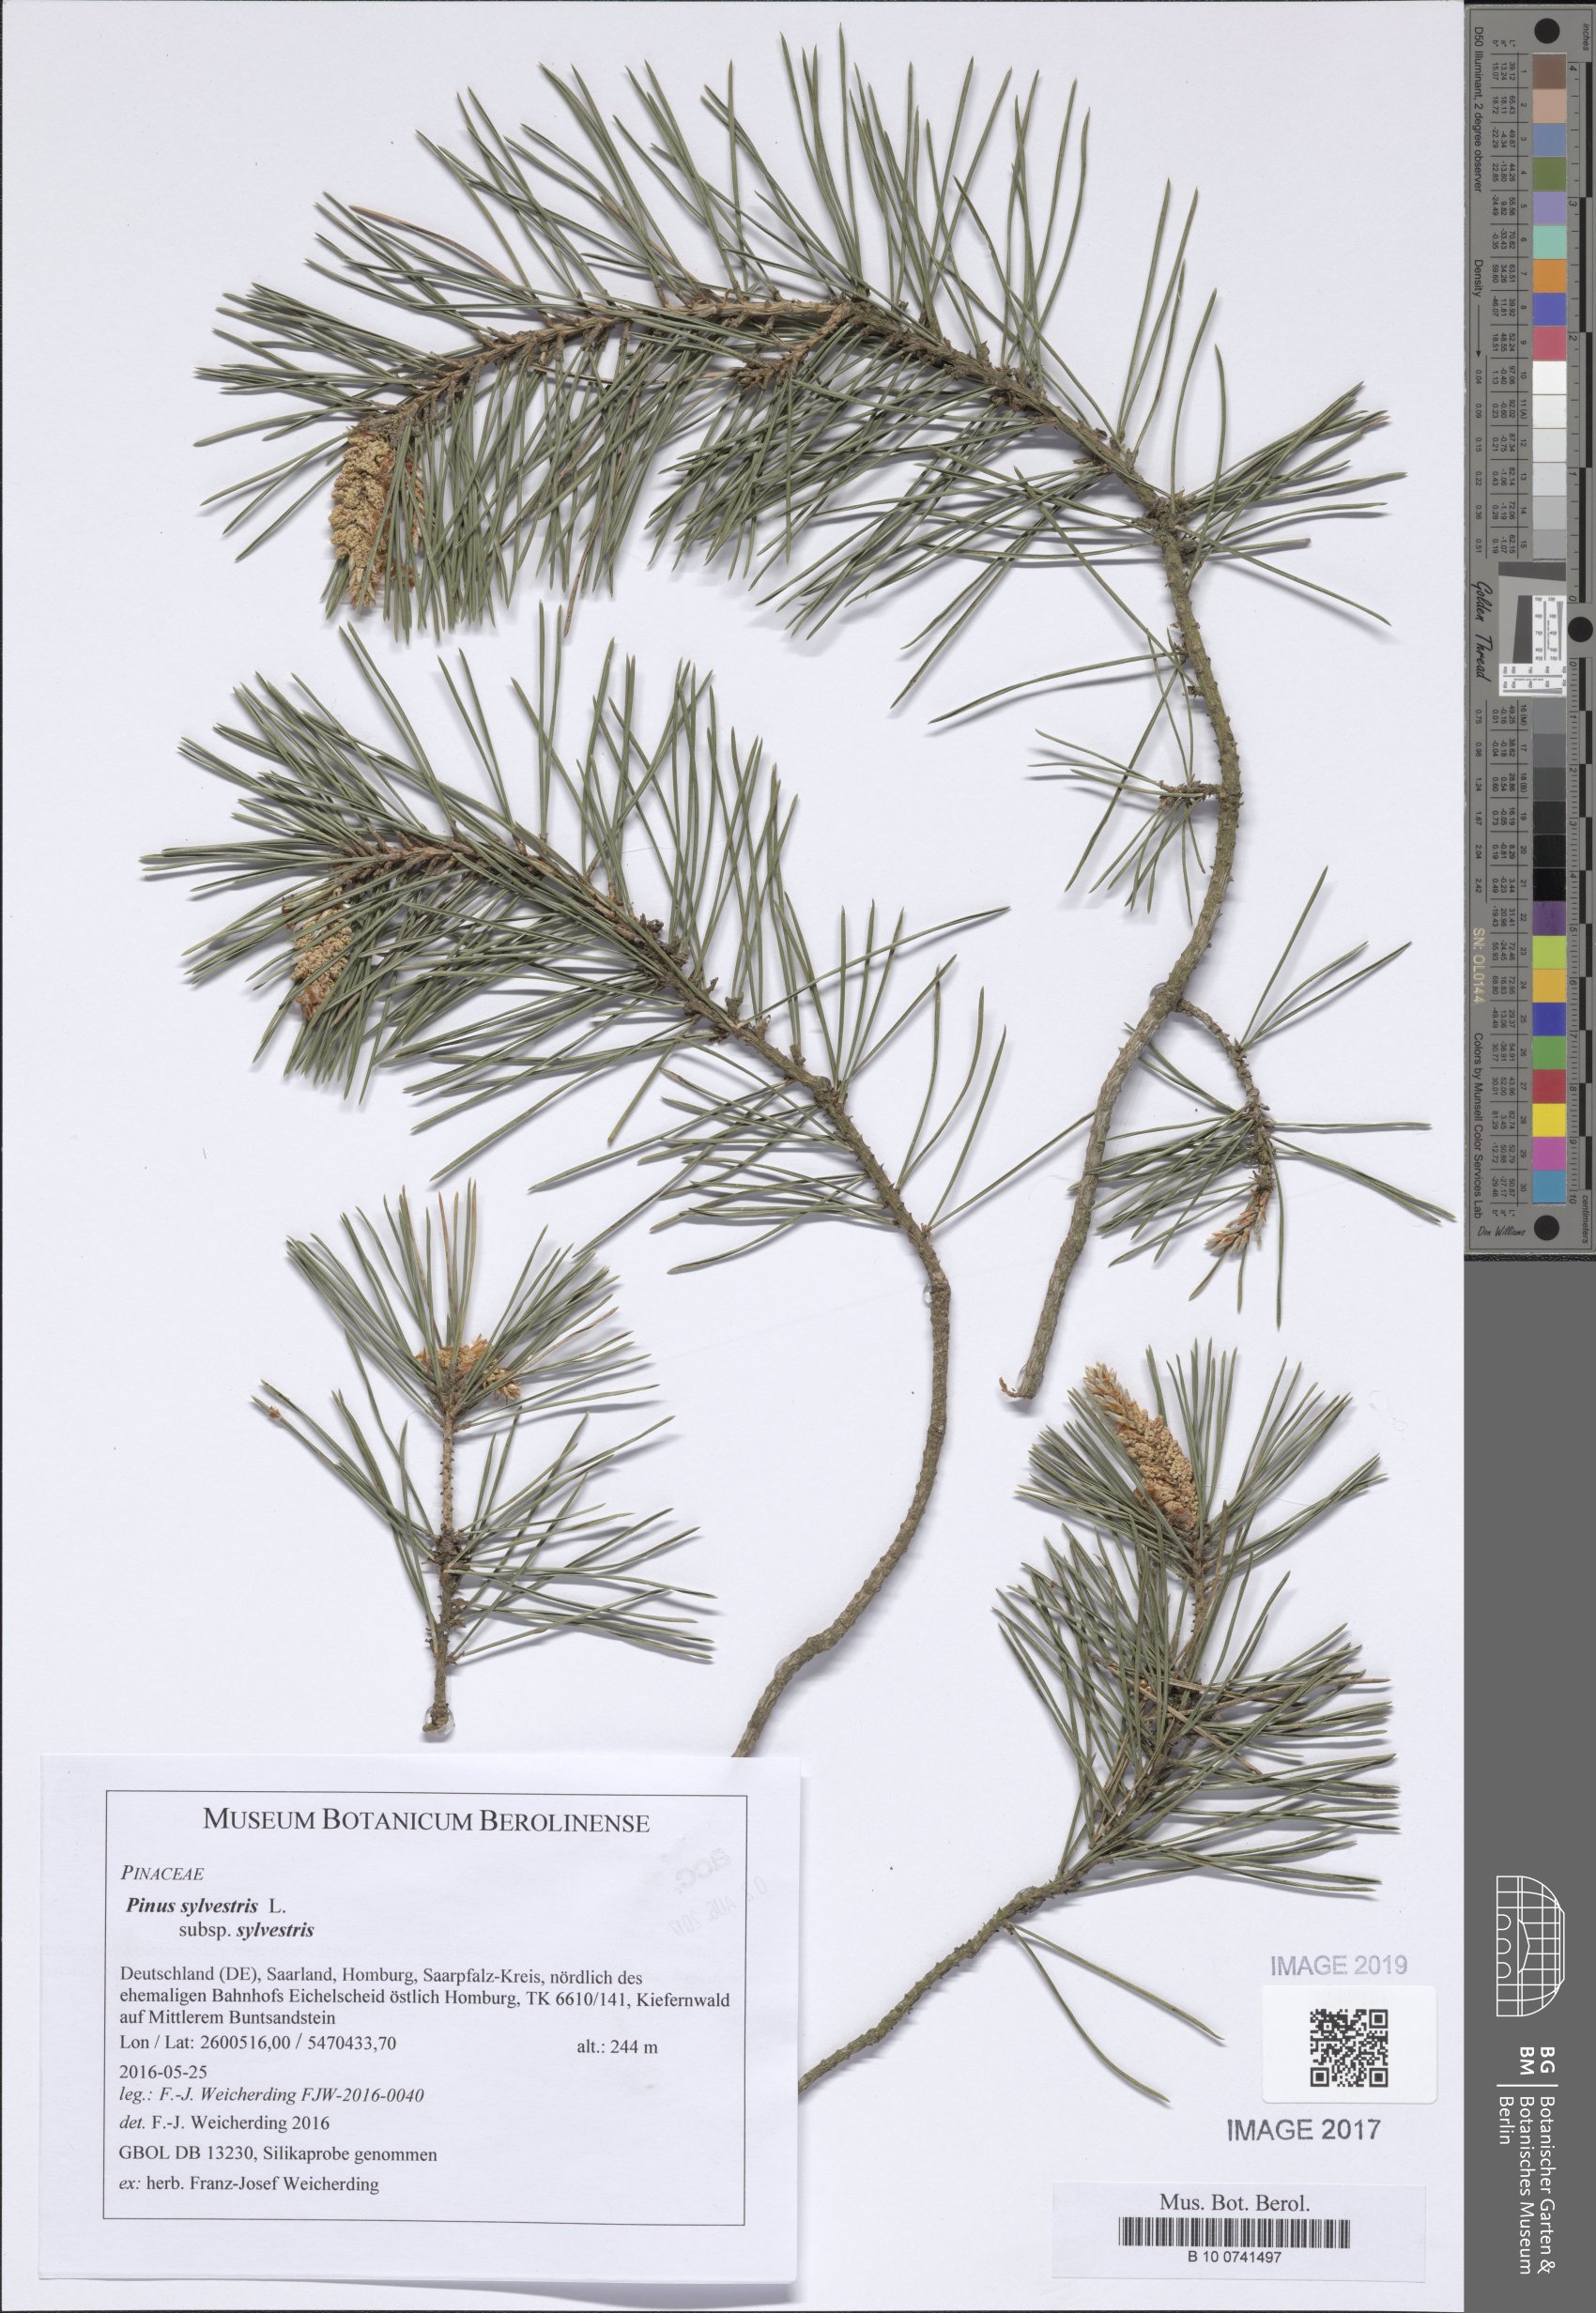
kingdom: Plantae
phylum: Tracheophyta
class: Pinopsida
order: Pinales
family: Pinaceae
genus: Pinus
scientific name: Pinus sylvestris
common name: Scots pine
